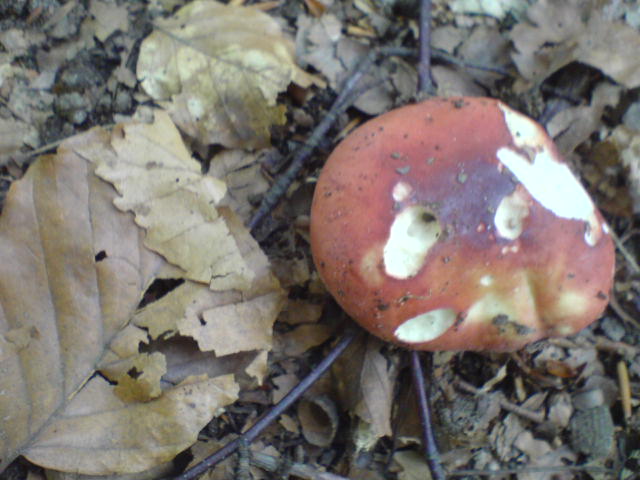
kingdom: Fungi
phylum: Basidiomycota
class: Agaricomycetes
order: Russulales
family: Russulaceae
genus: Russula
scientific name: Russula rosea
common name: fastkødet skørhat
